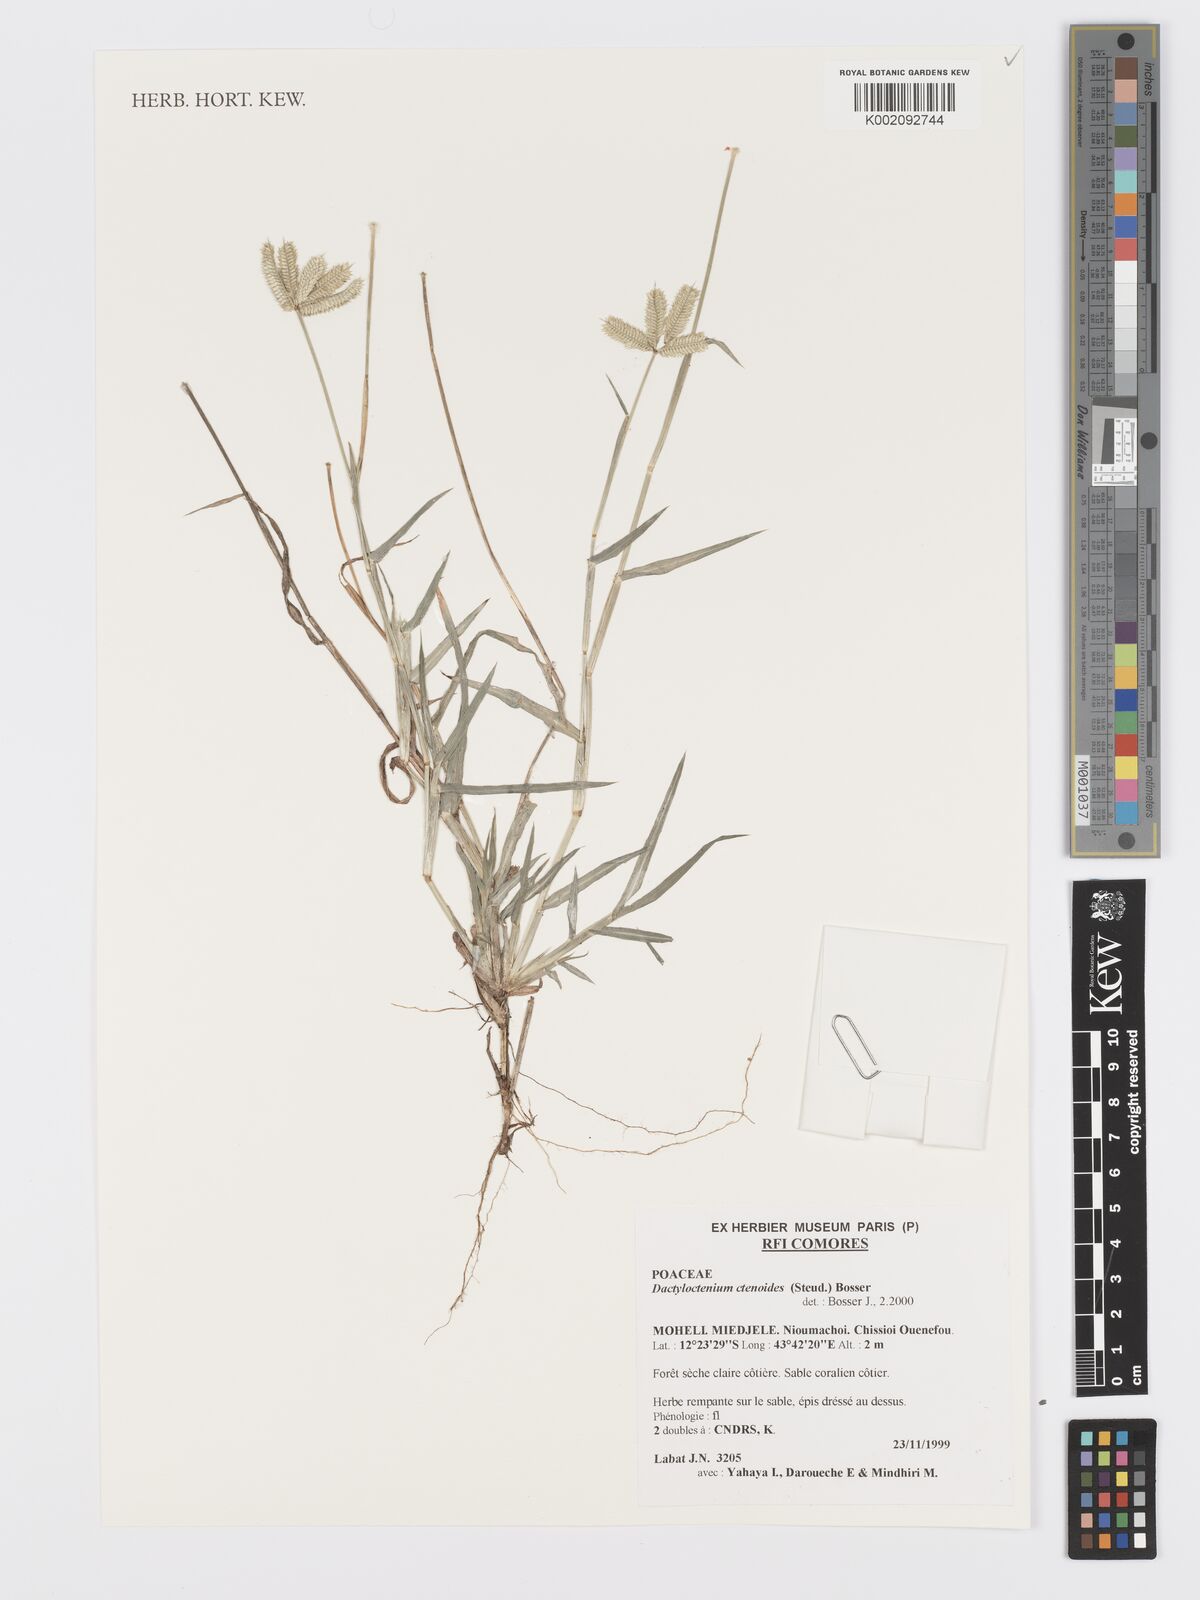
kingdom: Plantae
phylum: Tracheophyta
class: Liliopsida
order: Poales
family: Poaceae
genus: Dactyloctenium
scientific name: Dactyloctenium ctenoides
